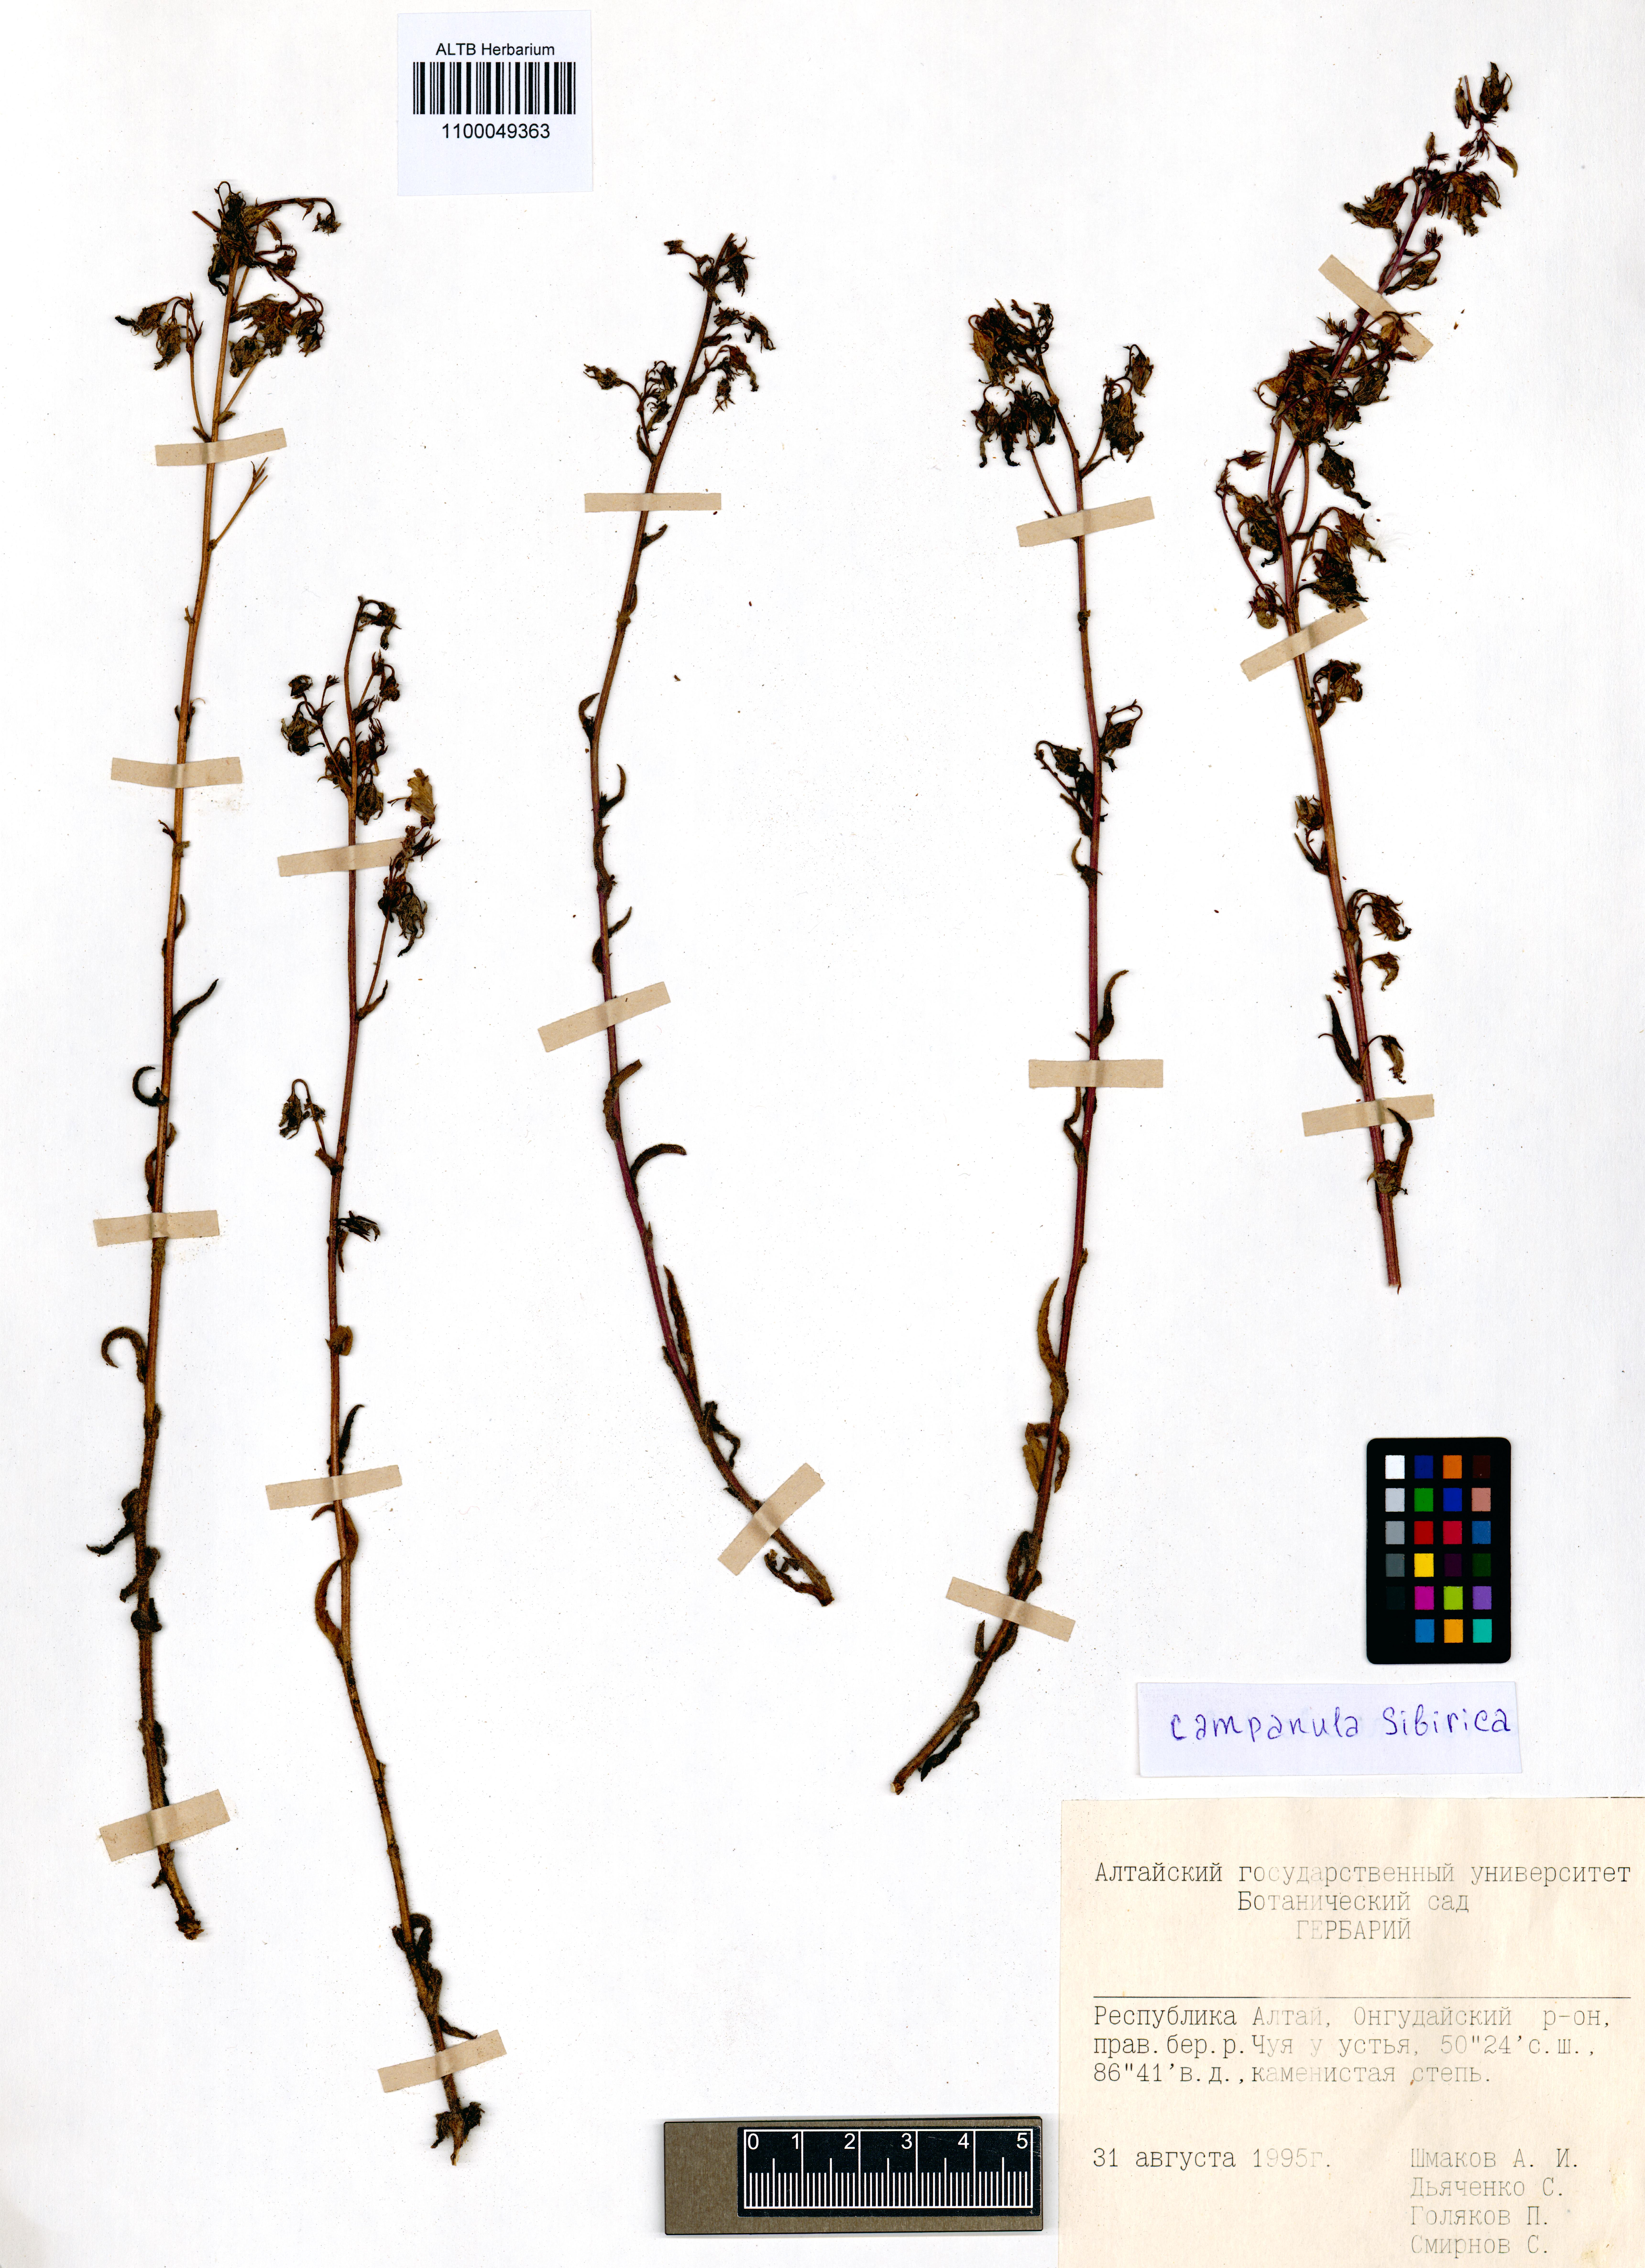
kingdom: Plantae
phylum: Tracheophyta
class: Magnoliopsida
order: Asterales
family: Campanulaceae
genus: Campanula
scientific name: Campanula sibirica
